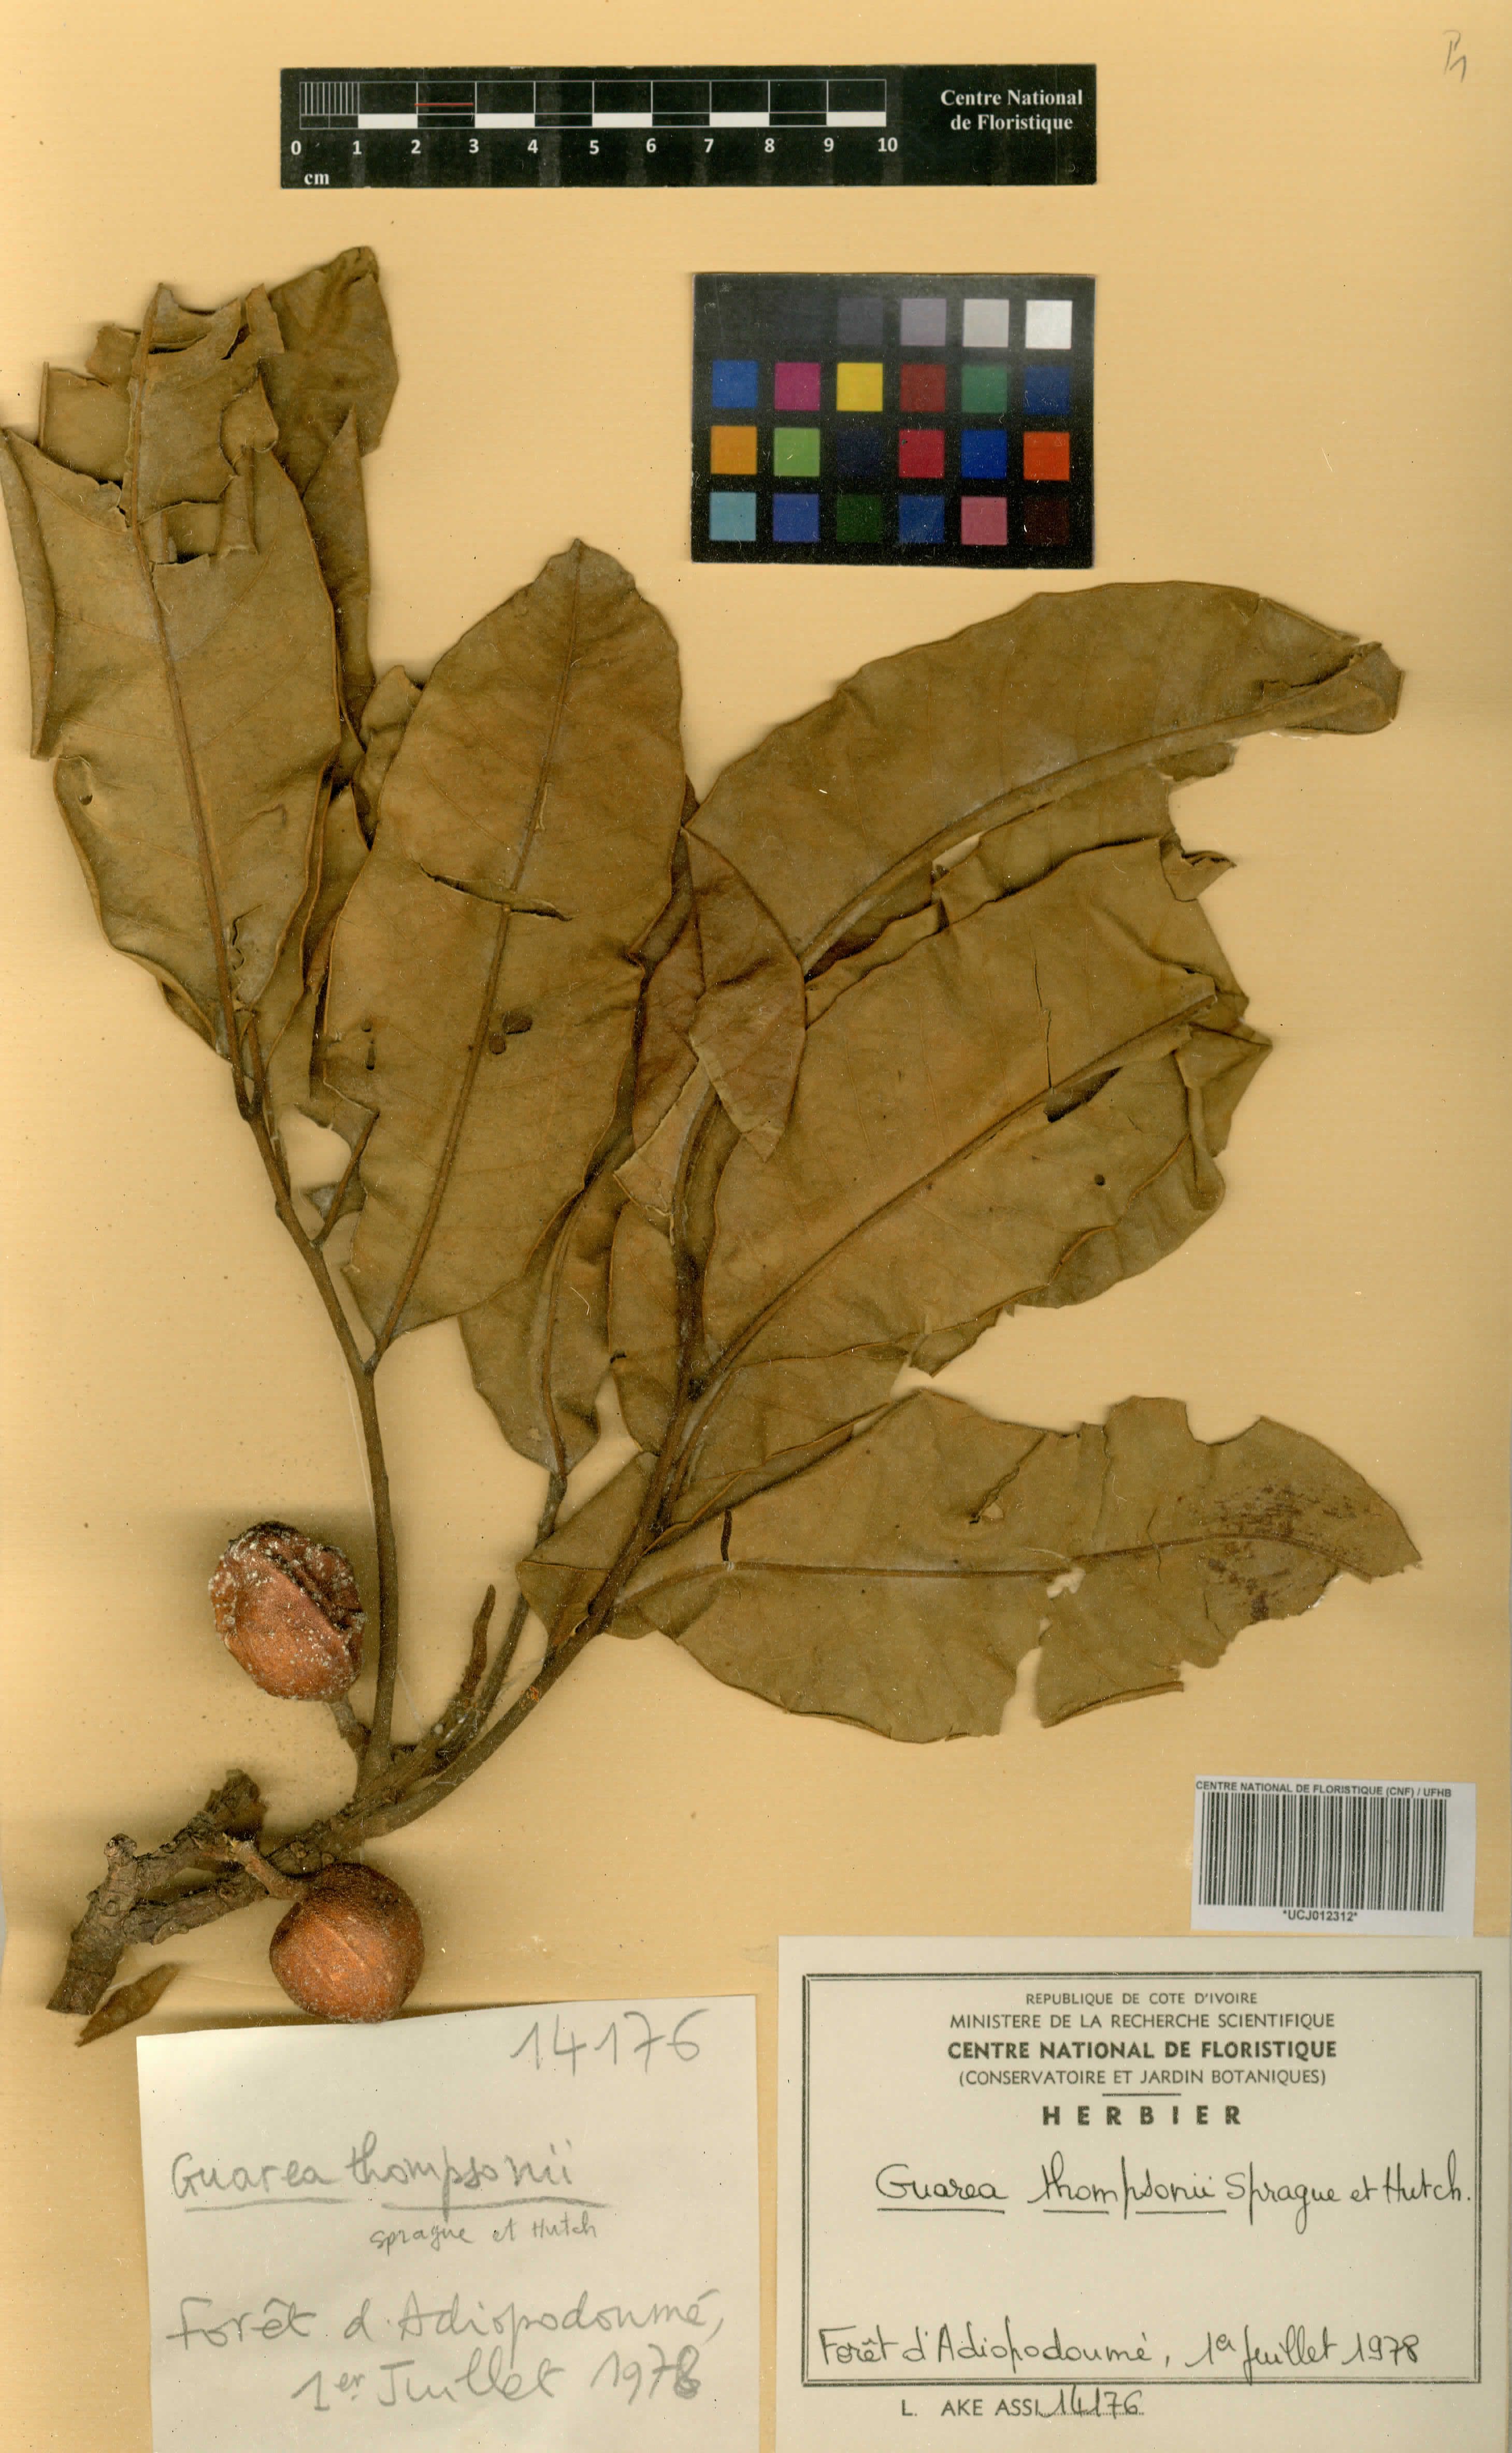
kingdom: Plantae
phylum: Tracheophyta
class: Magnoliopsida
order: Sapindales
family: Meliaceae
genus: Leplaea
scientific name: Leplaea thompsonii
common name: Black guarea
